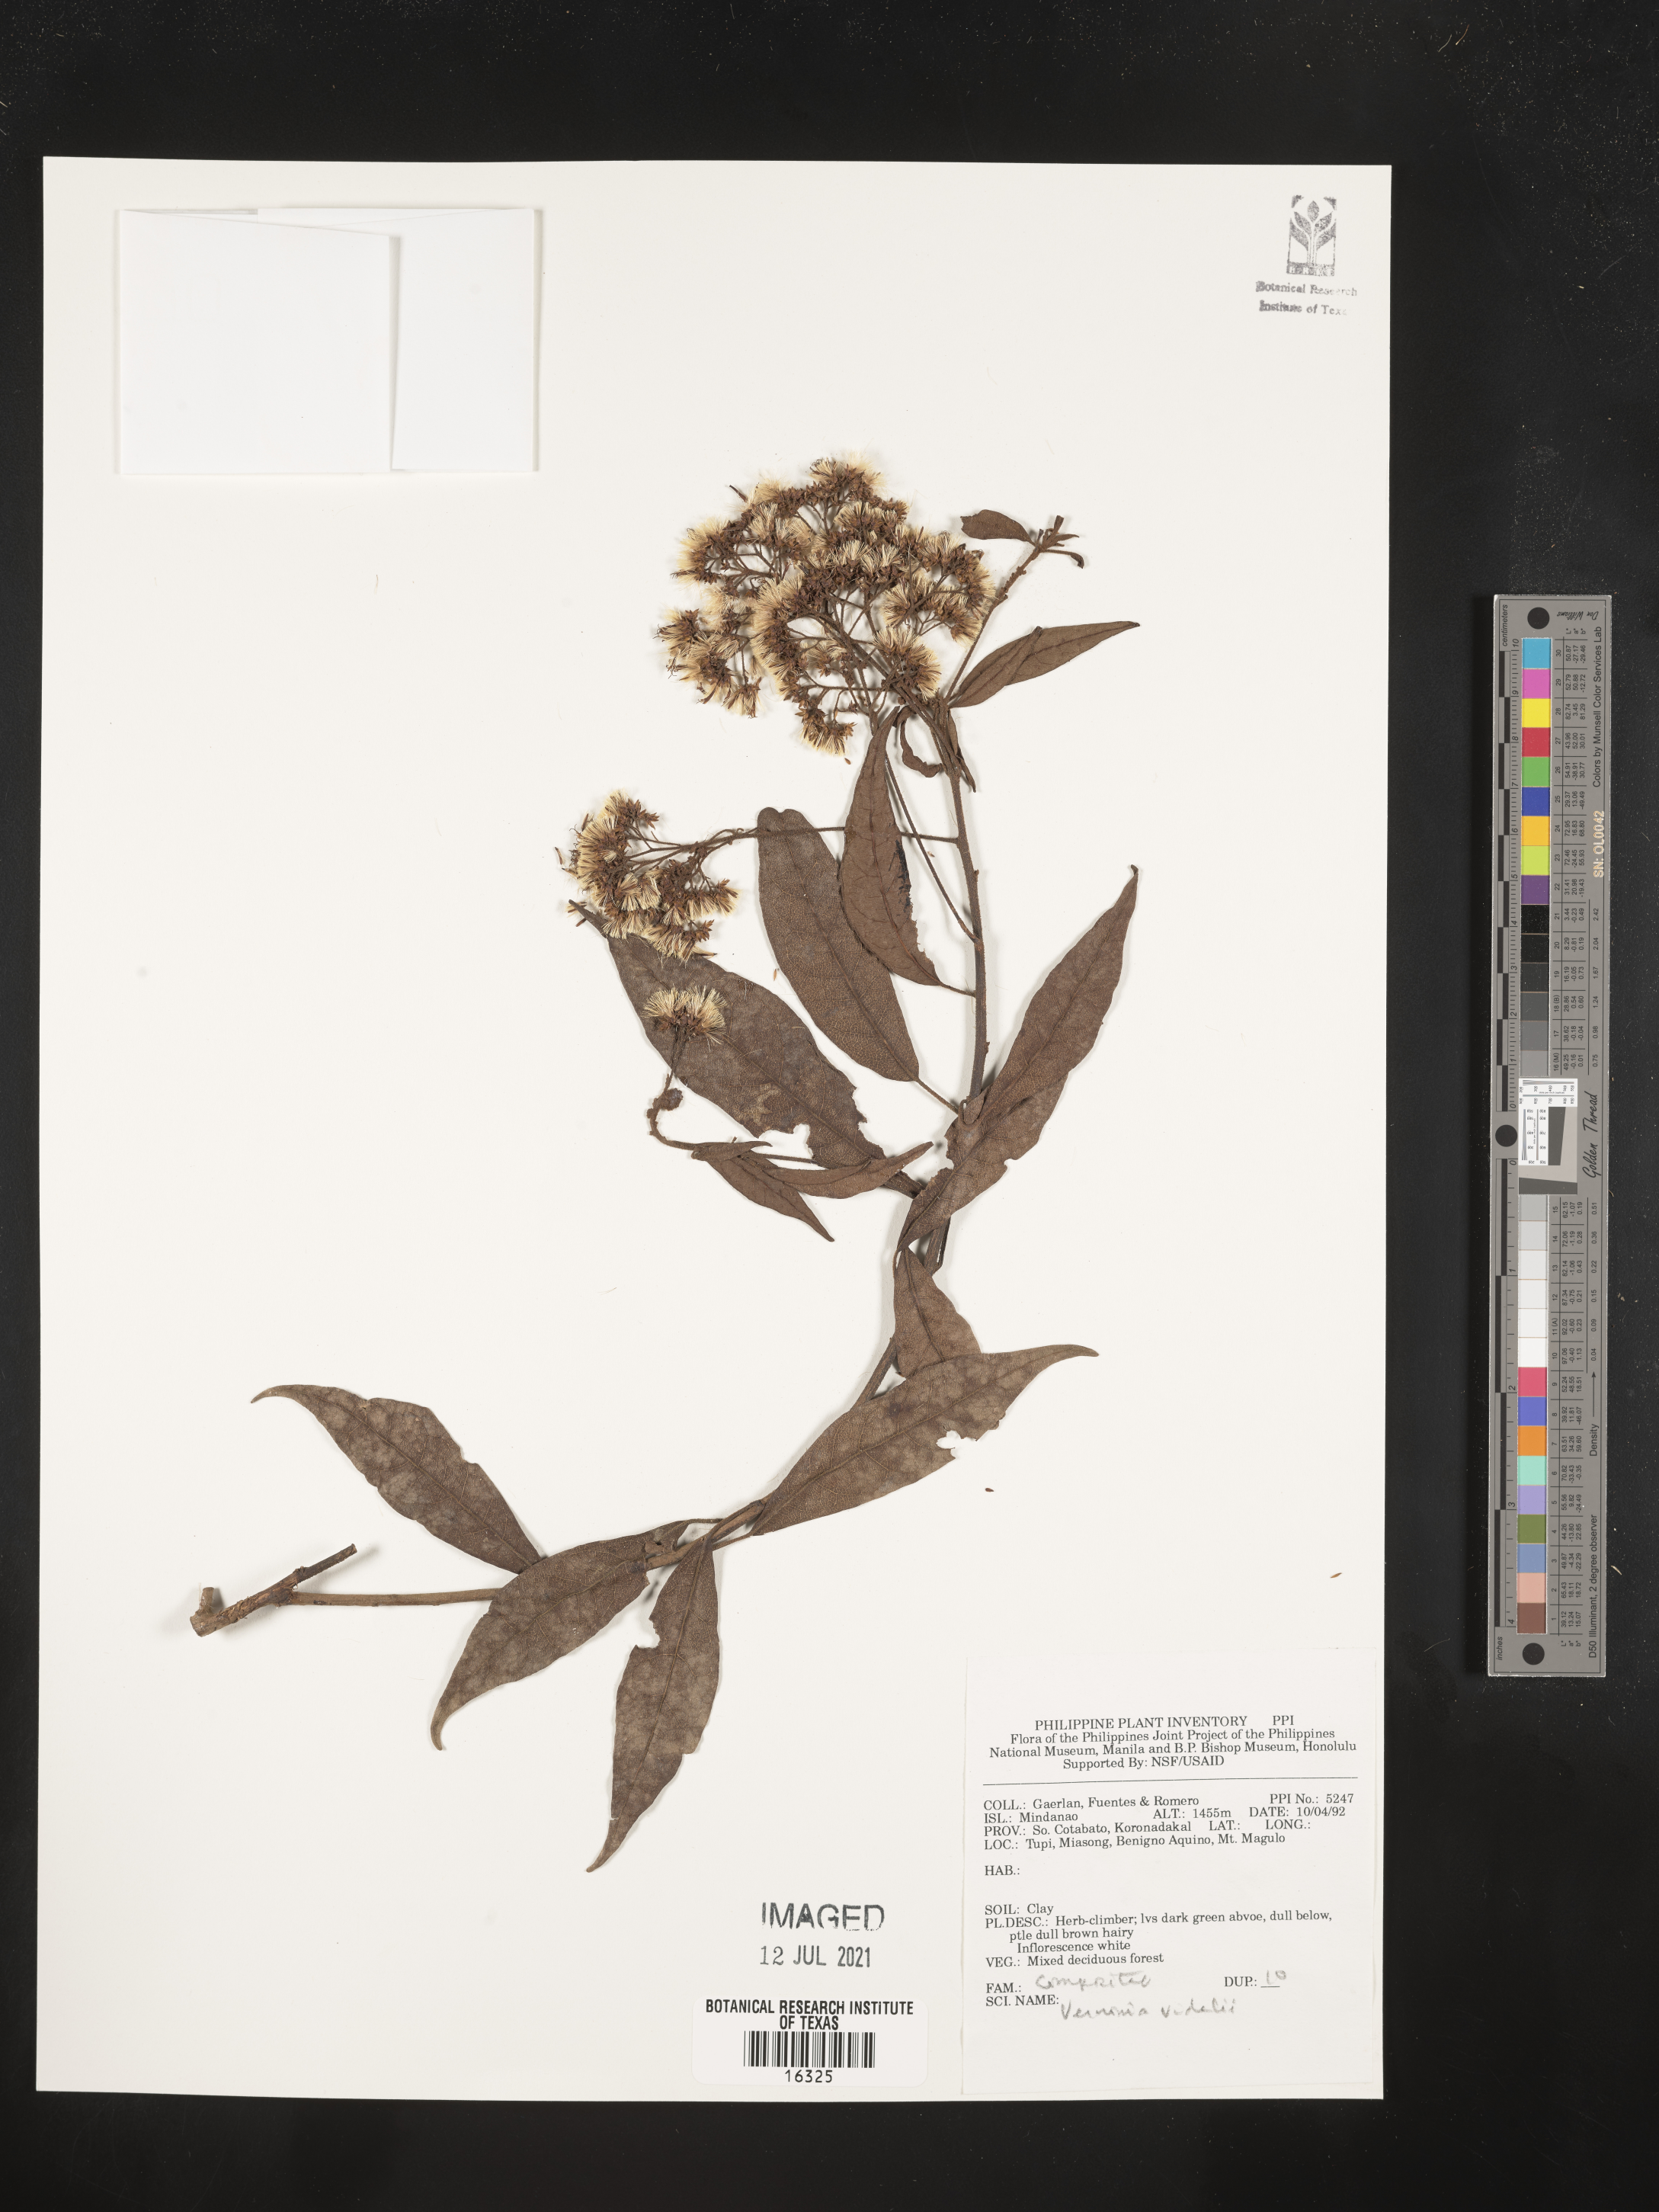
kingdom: Plantae
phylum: Tracheophyta
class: Magnoliopsida
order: Asterales
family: Asteraceae
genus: Strobocalyx
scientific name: Strobocalyx vidalii
